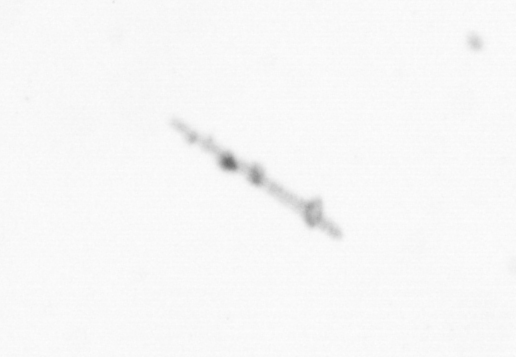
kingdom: Chromista
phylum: Ochrophyta
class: Bacillariophyceae
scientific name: Bacillariophyceae
